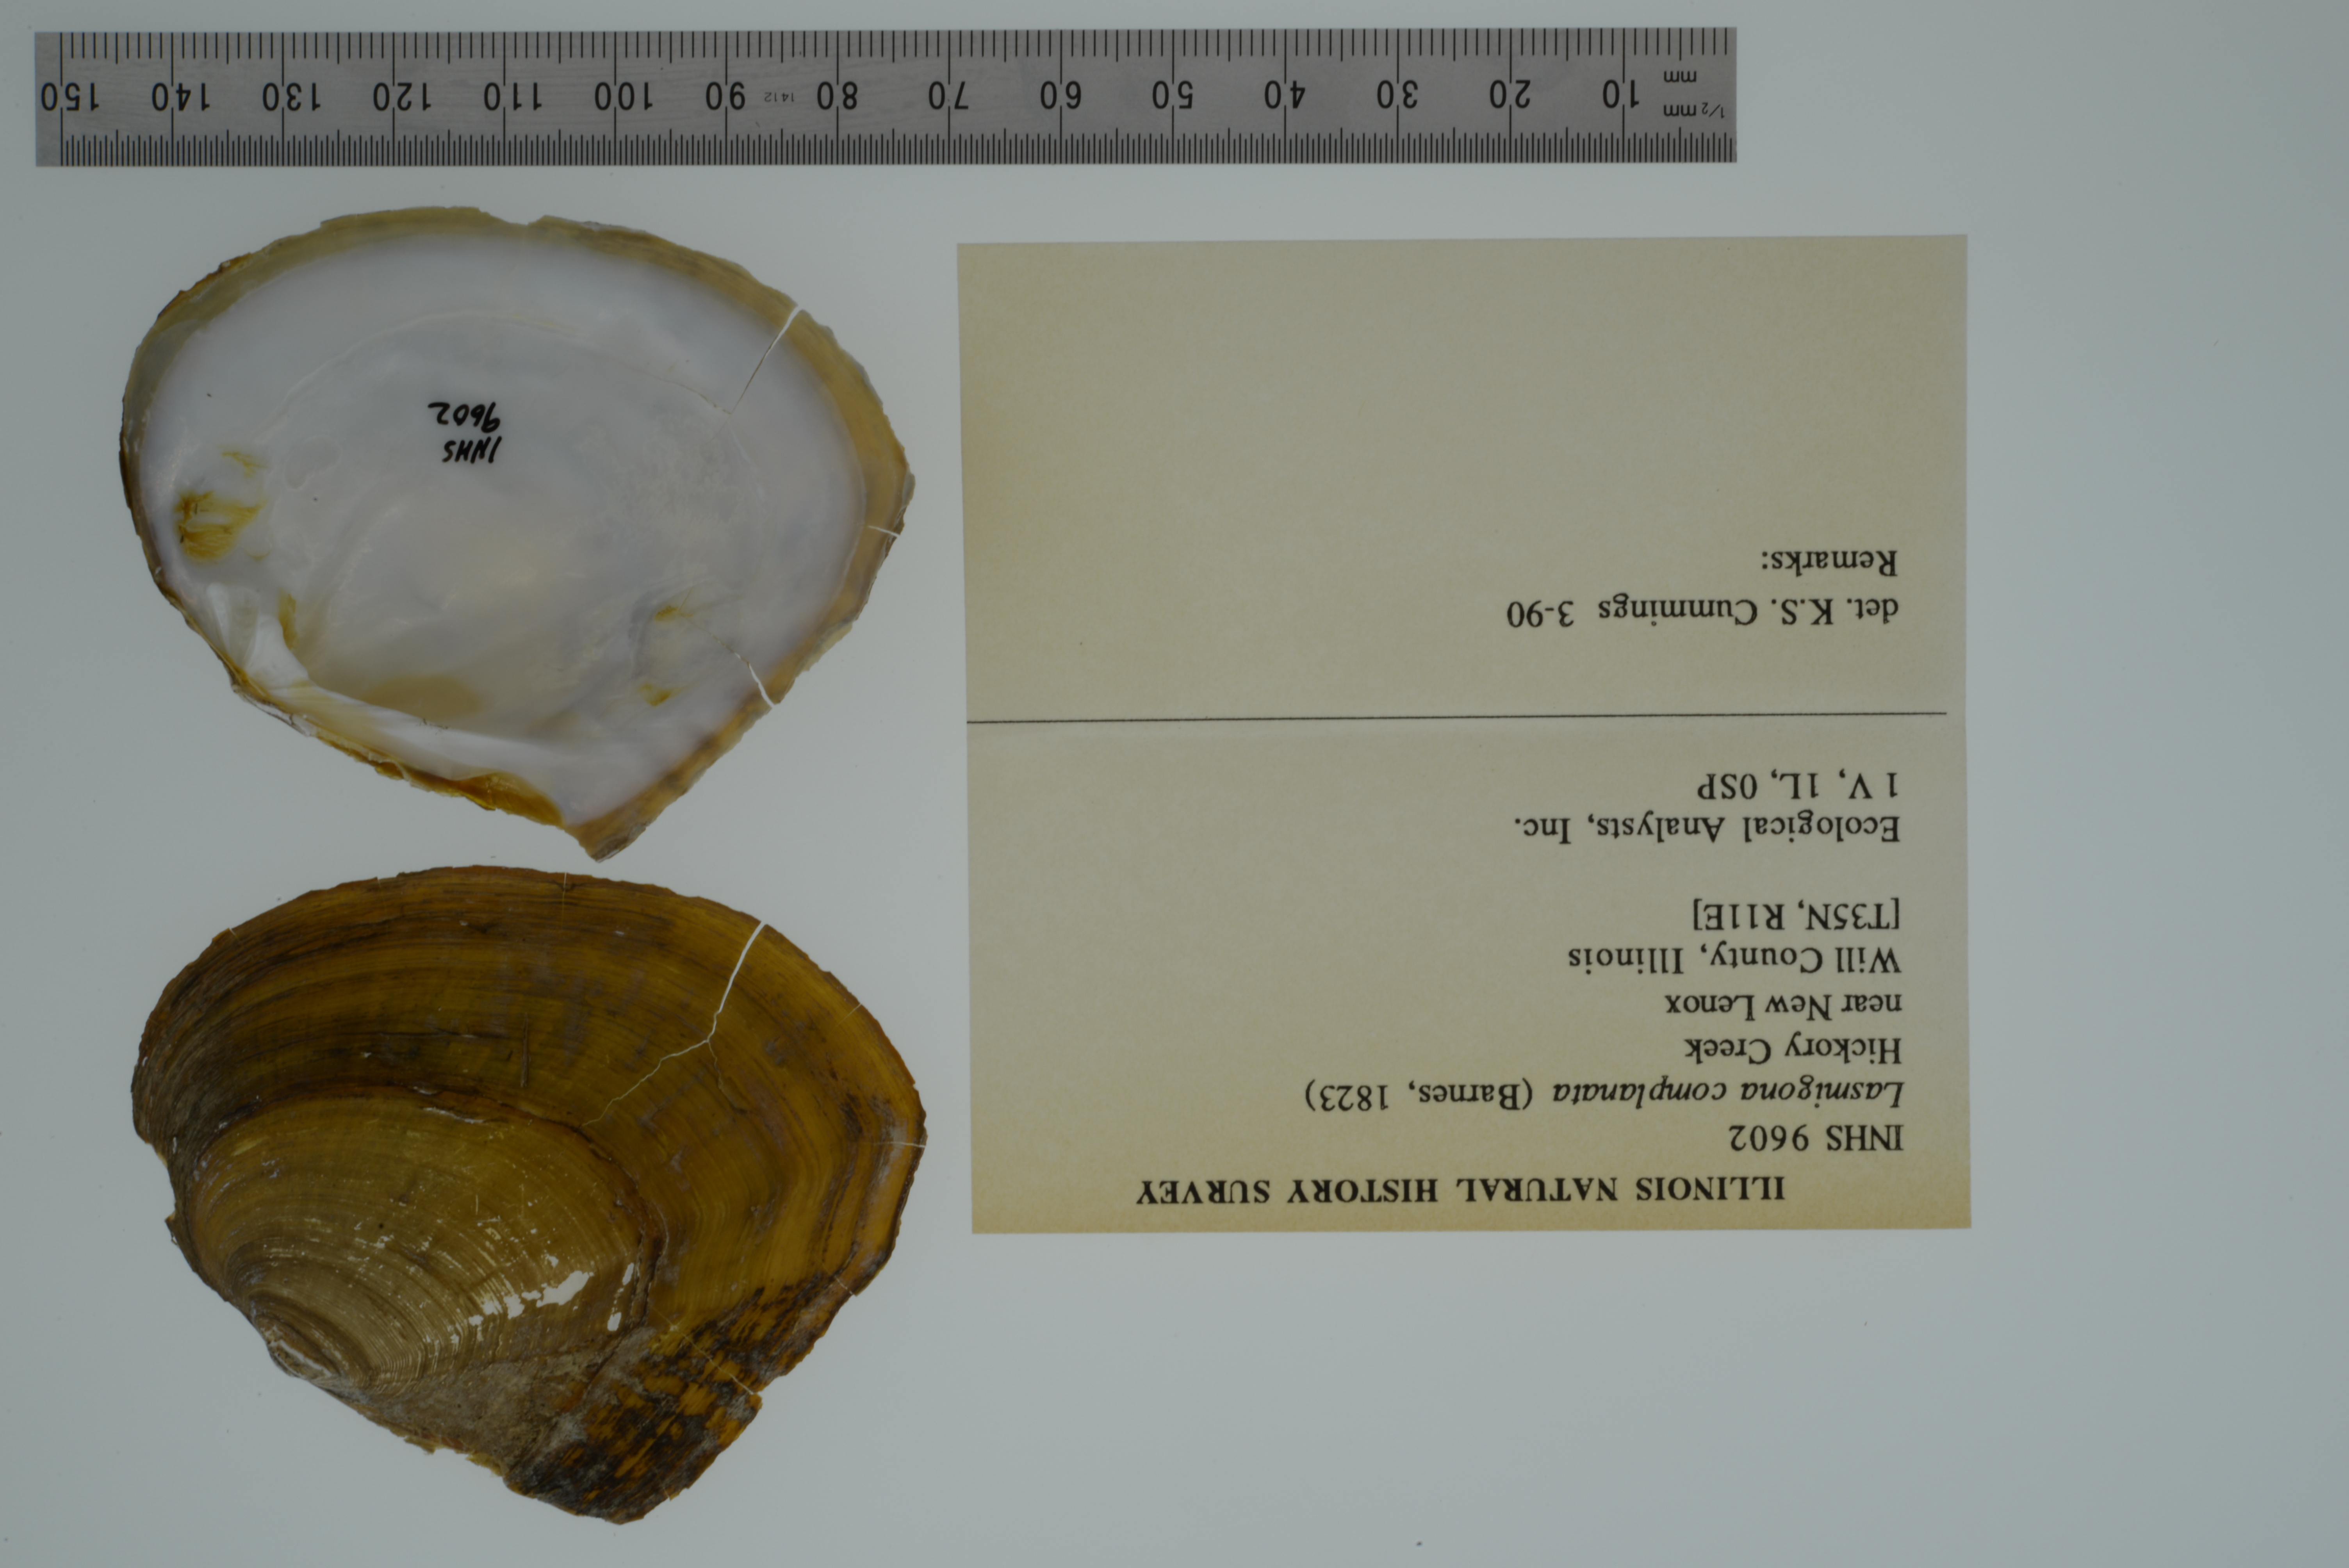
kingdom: Animalia
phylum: Mollusca
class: Bivalvia
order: Unionida
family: Unionidae
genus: Lasmigona
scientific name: Lasmigona complanata
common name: White heelsplitter
